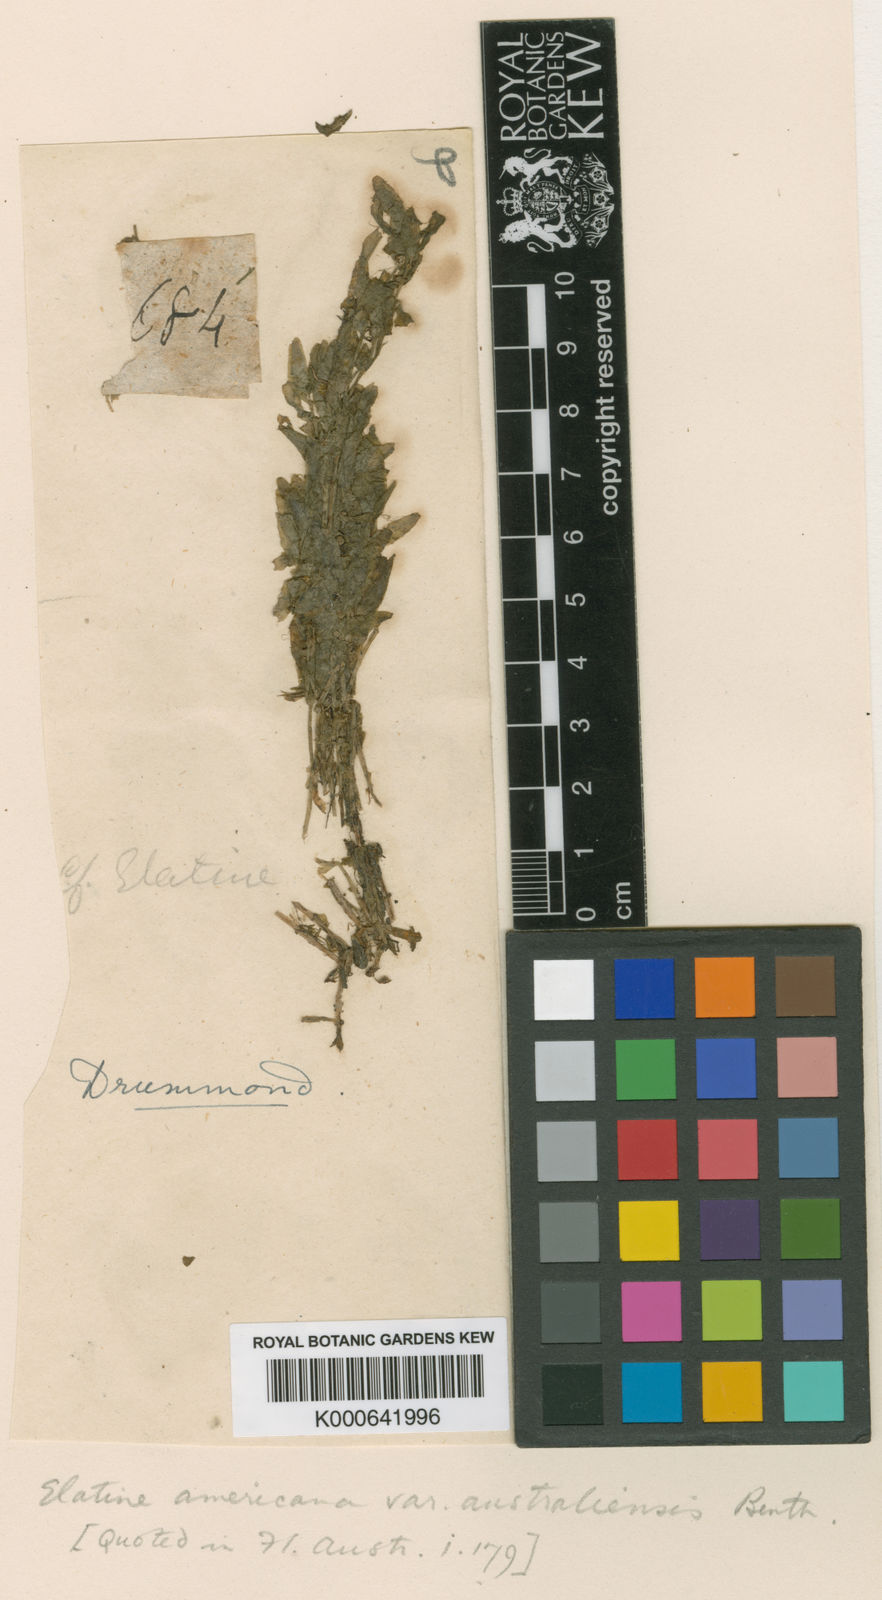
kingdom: Plantae
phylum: Tracheophyta
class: Magnoliopsida
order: Malpighiales
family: Elatinaceae
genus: Elatine
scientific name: Elatine gratioloides
